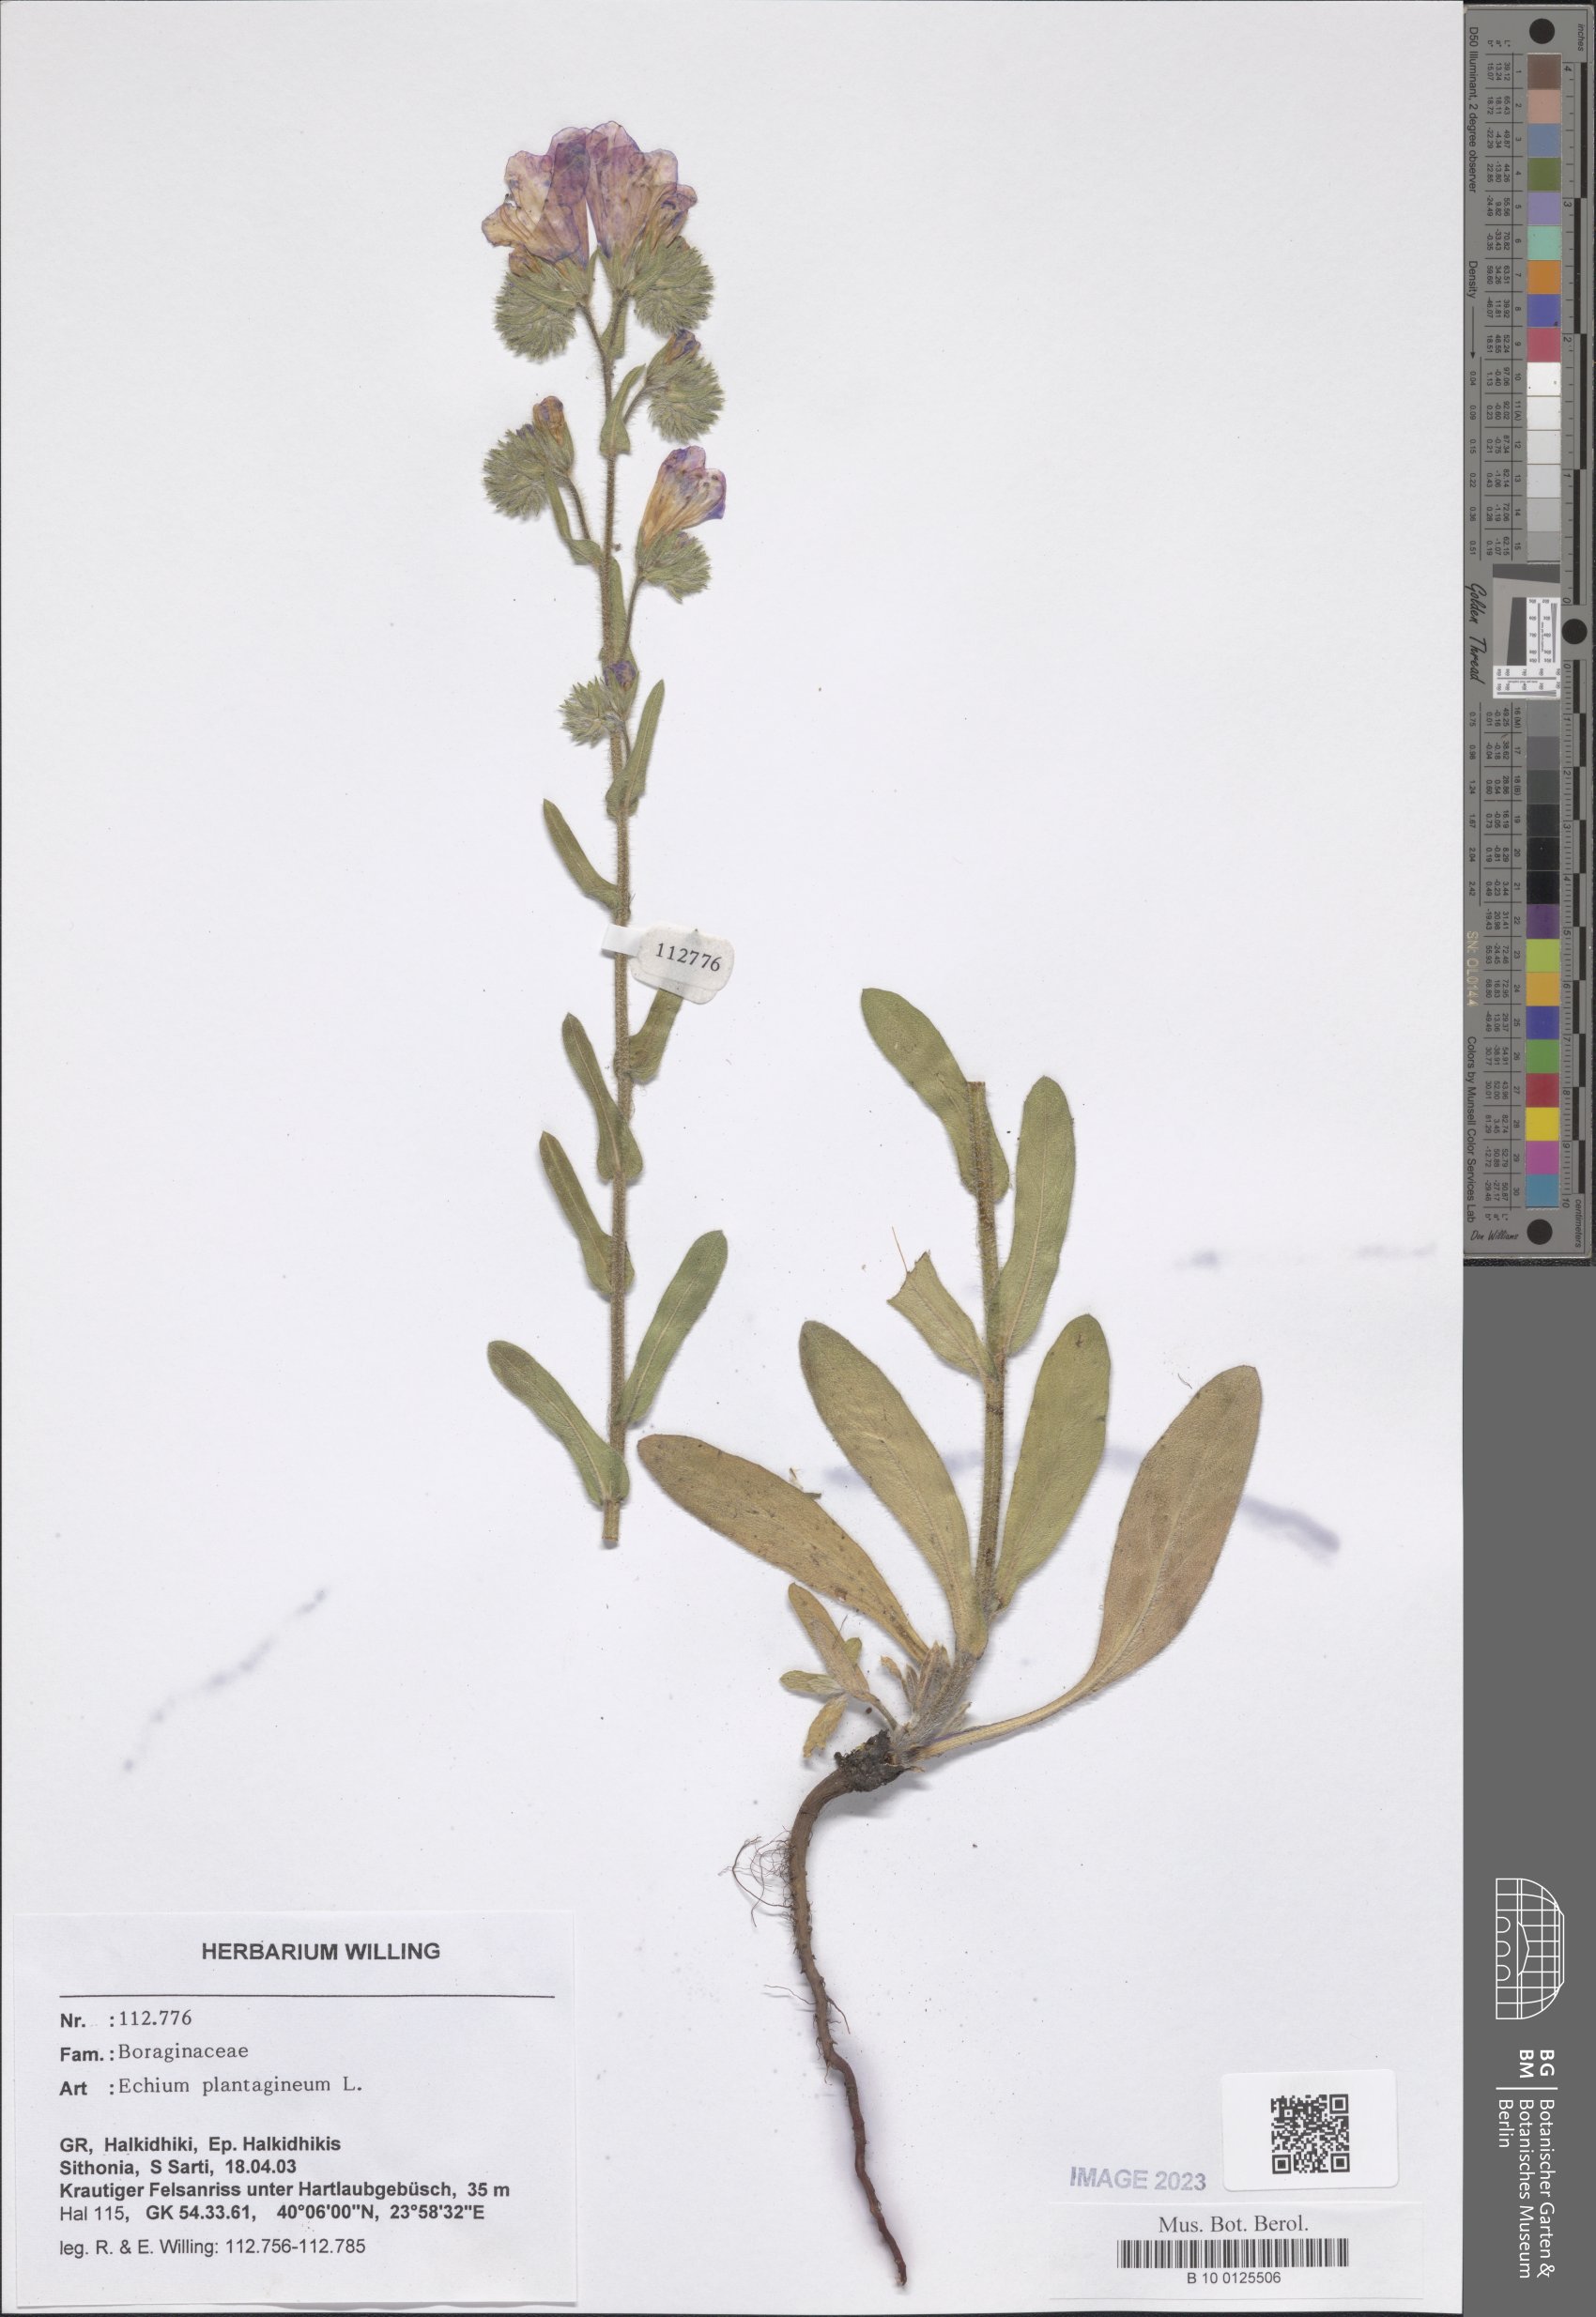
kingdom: Plantae
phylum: Tracheophyta
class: Magnoliopsida
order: Boraginales
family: Boraginaceae
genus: Echium
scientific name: Echium plantagineum
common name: Purple viper's-bugloss
